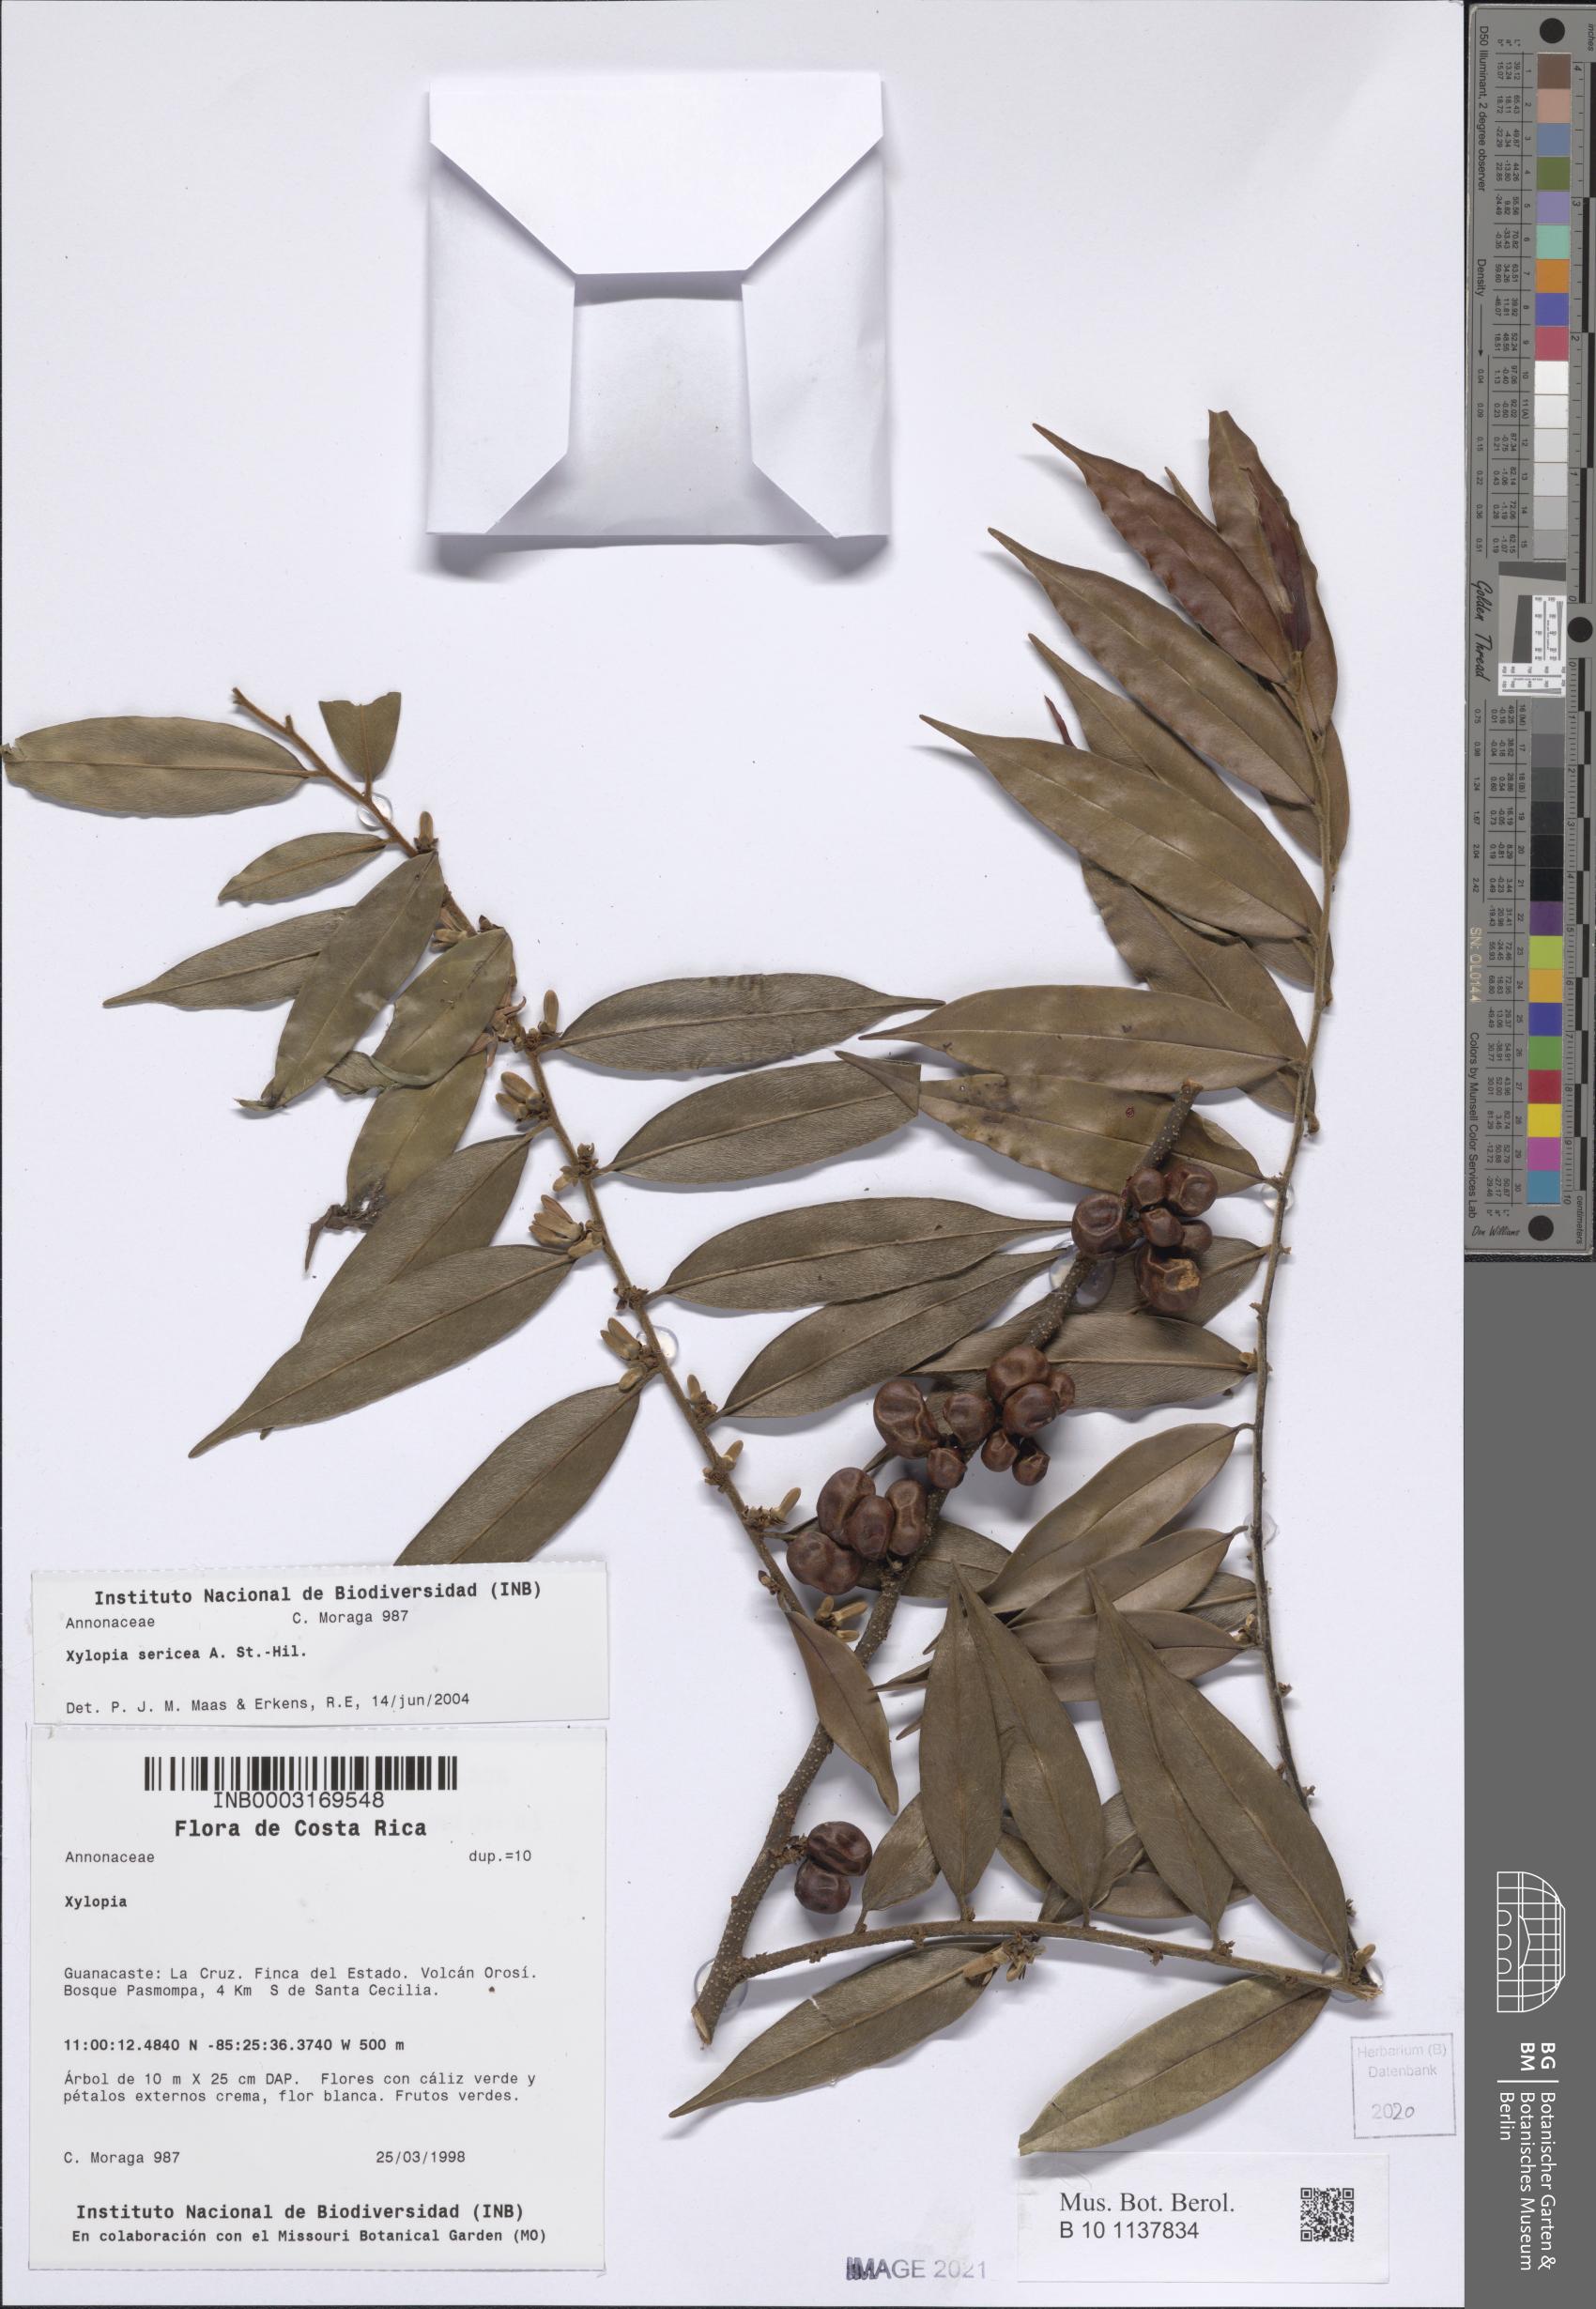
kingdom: Plantae
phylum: Tracheophyta
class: Magnoliopsida
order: Magnoliales
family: Annonaceae
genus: Xylopia
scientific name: Xylopia sericea
